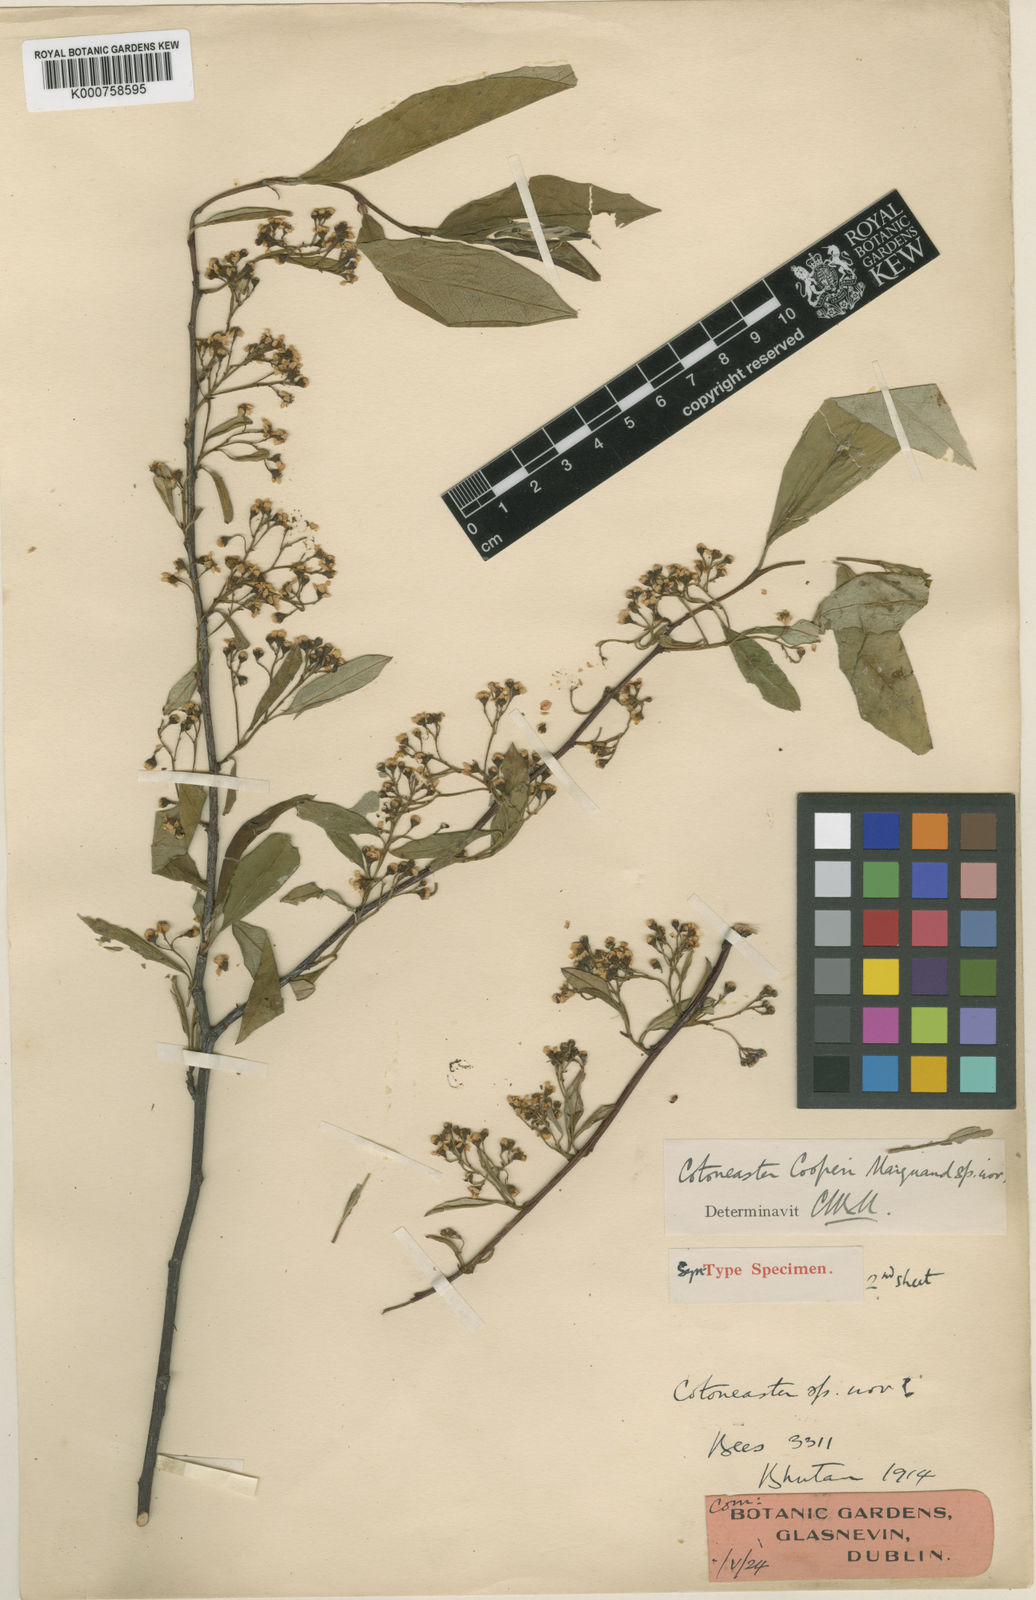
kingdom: Plantae
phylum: Tracheophyta
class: Magnoliopsida
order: Rosales
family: Rosaceae
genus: Cotoneaster
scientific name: Cotoneaster cooperi
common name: Cooper's cotoneaster
